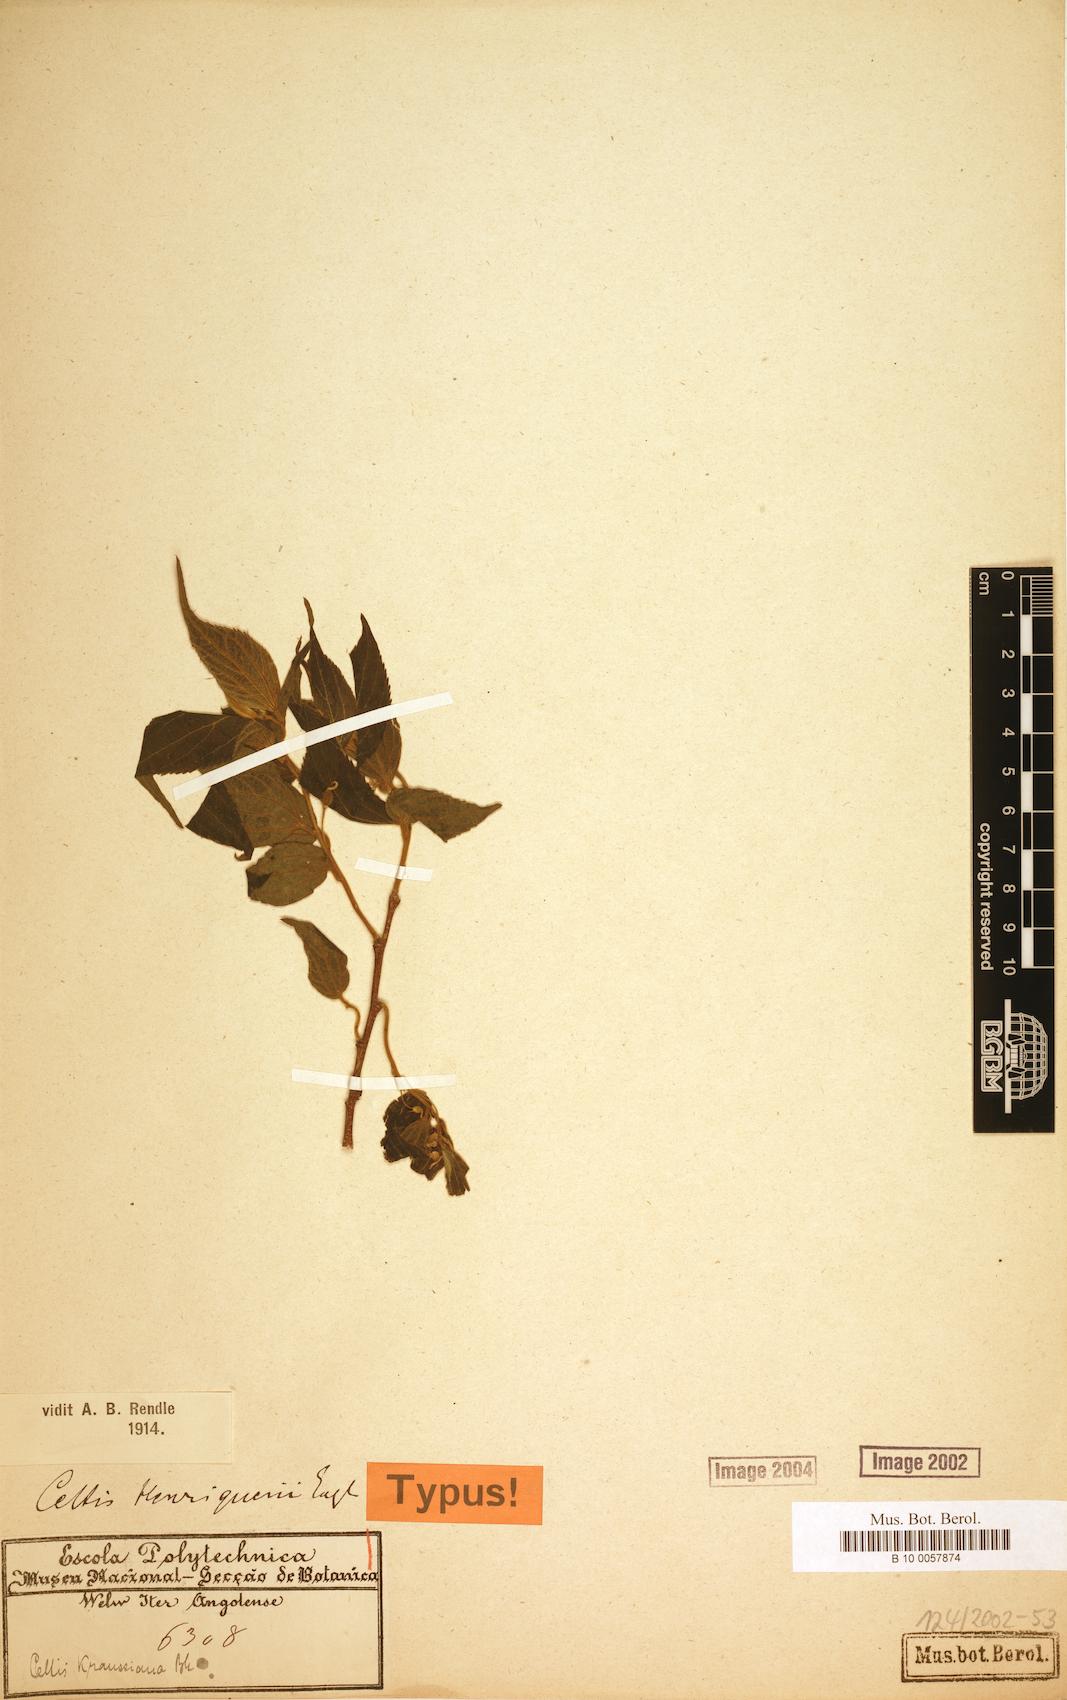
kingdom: Plantae
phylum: Tracheophyta
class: Magnoliopsida
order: Rosales
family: Cannabaceae
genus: Celtis
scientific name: Celtis henriquesii
